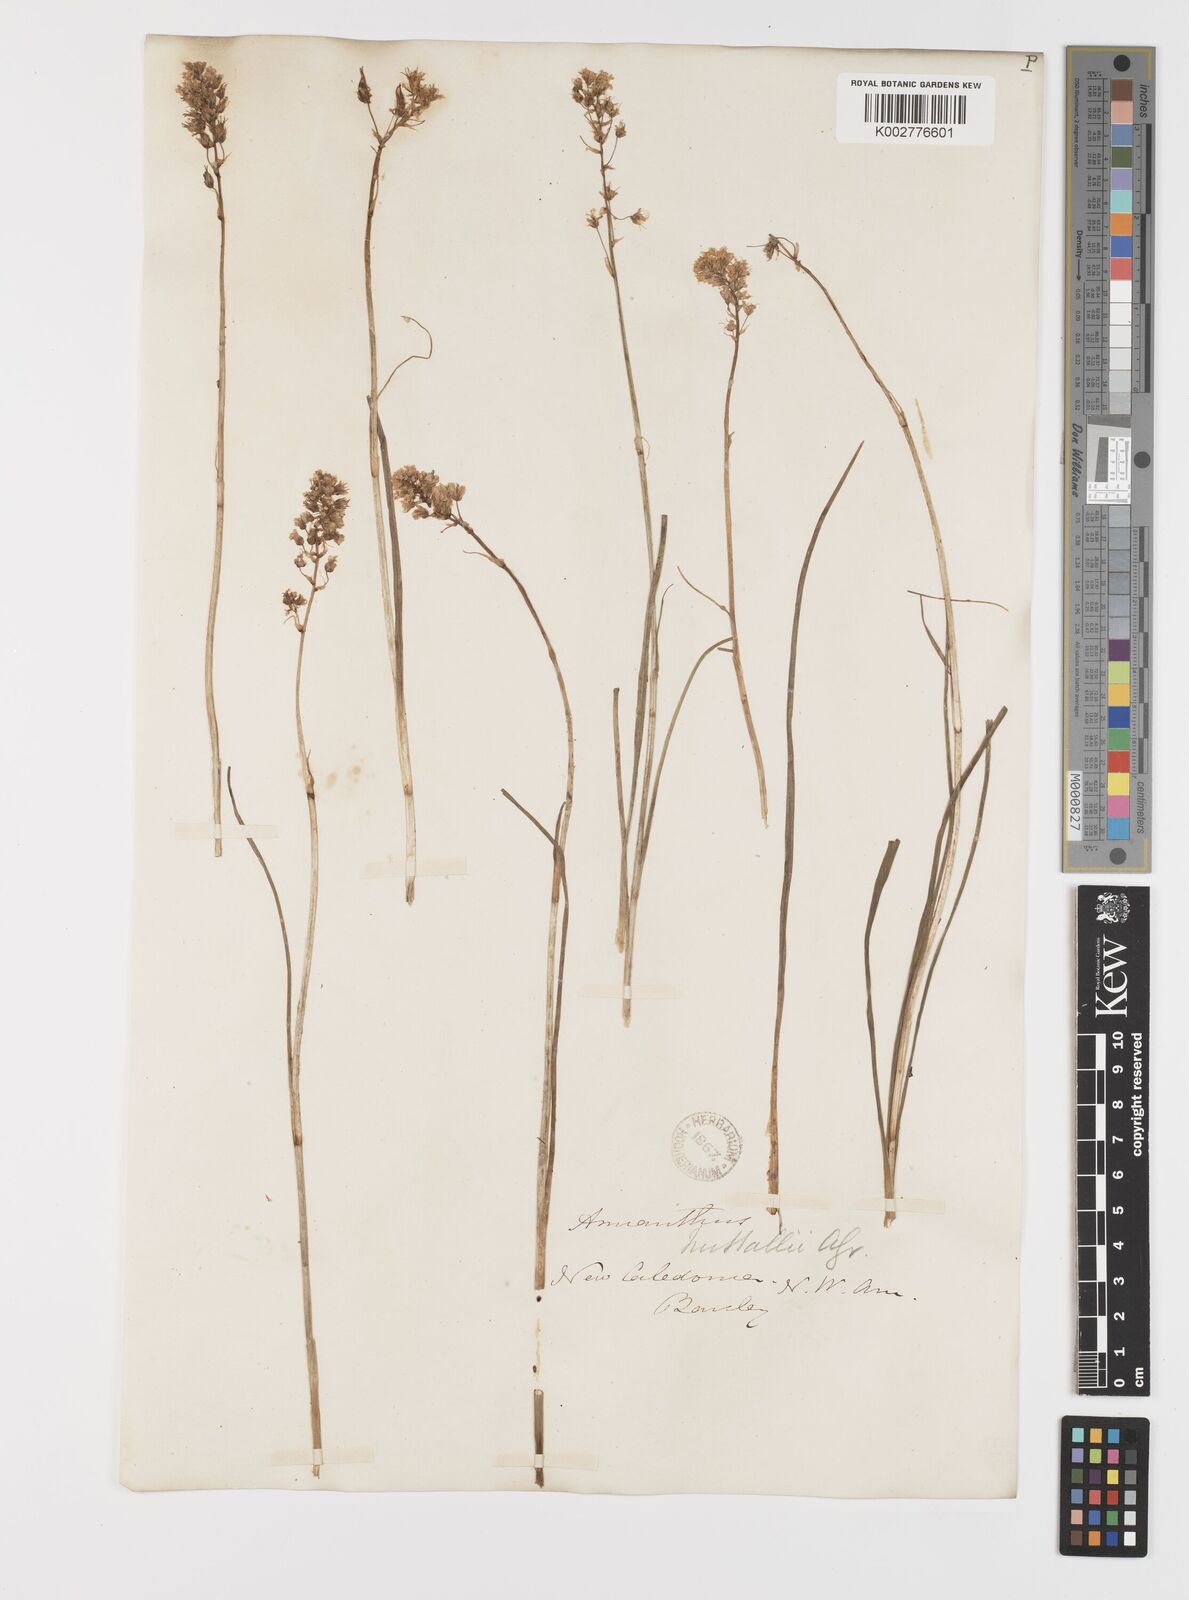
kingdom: Plantae
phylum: Tracheophyta
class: Liliopsida
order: Liliales
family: Melanthiaceae
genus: Toxicoscordion
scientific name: Toxicoscordion nuttallii
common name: Poison sego
